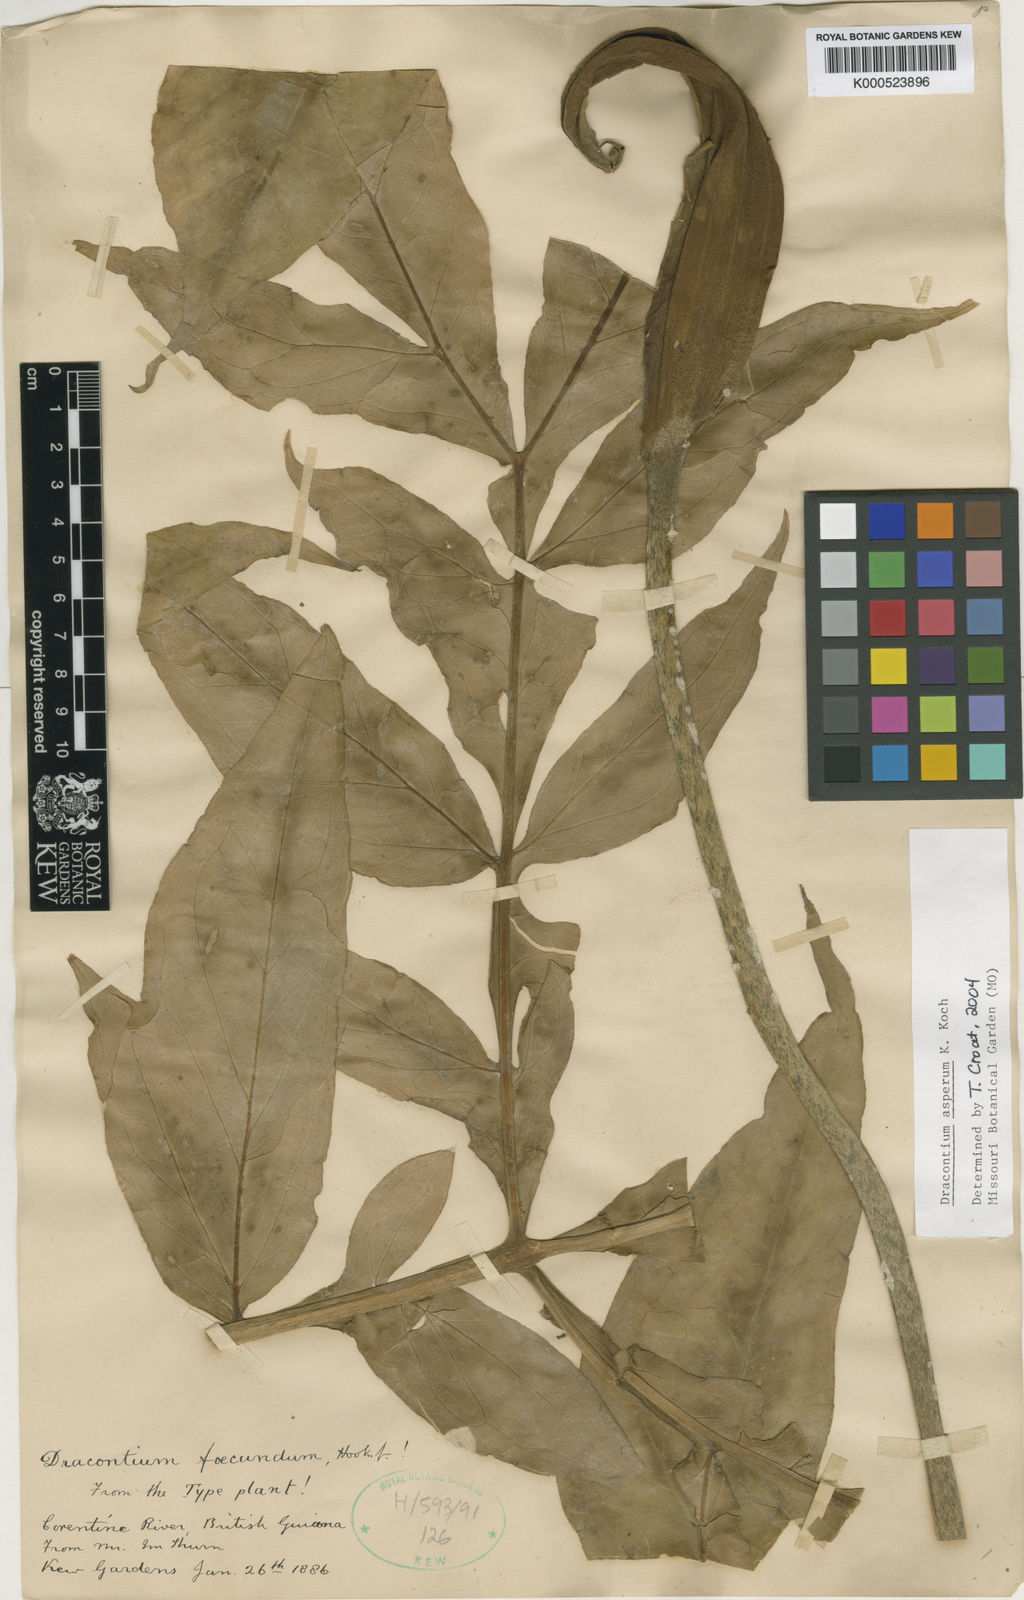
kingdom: Plantae
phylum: Tracheophyta
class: Liliopsida
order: Alismatales
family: Araceae
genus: Dracontium
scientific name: Dracontium asperum
